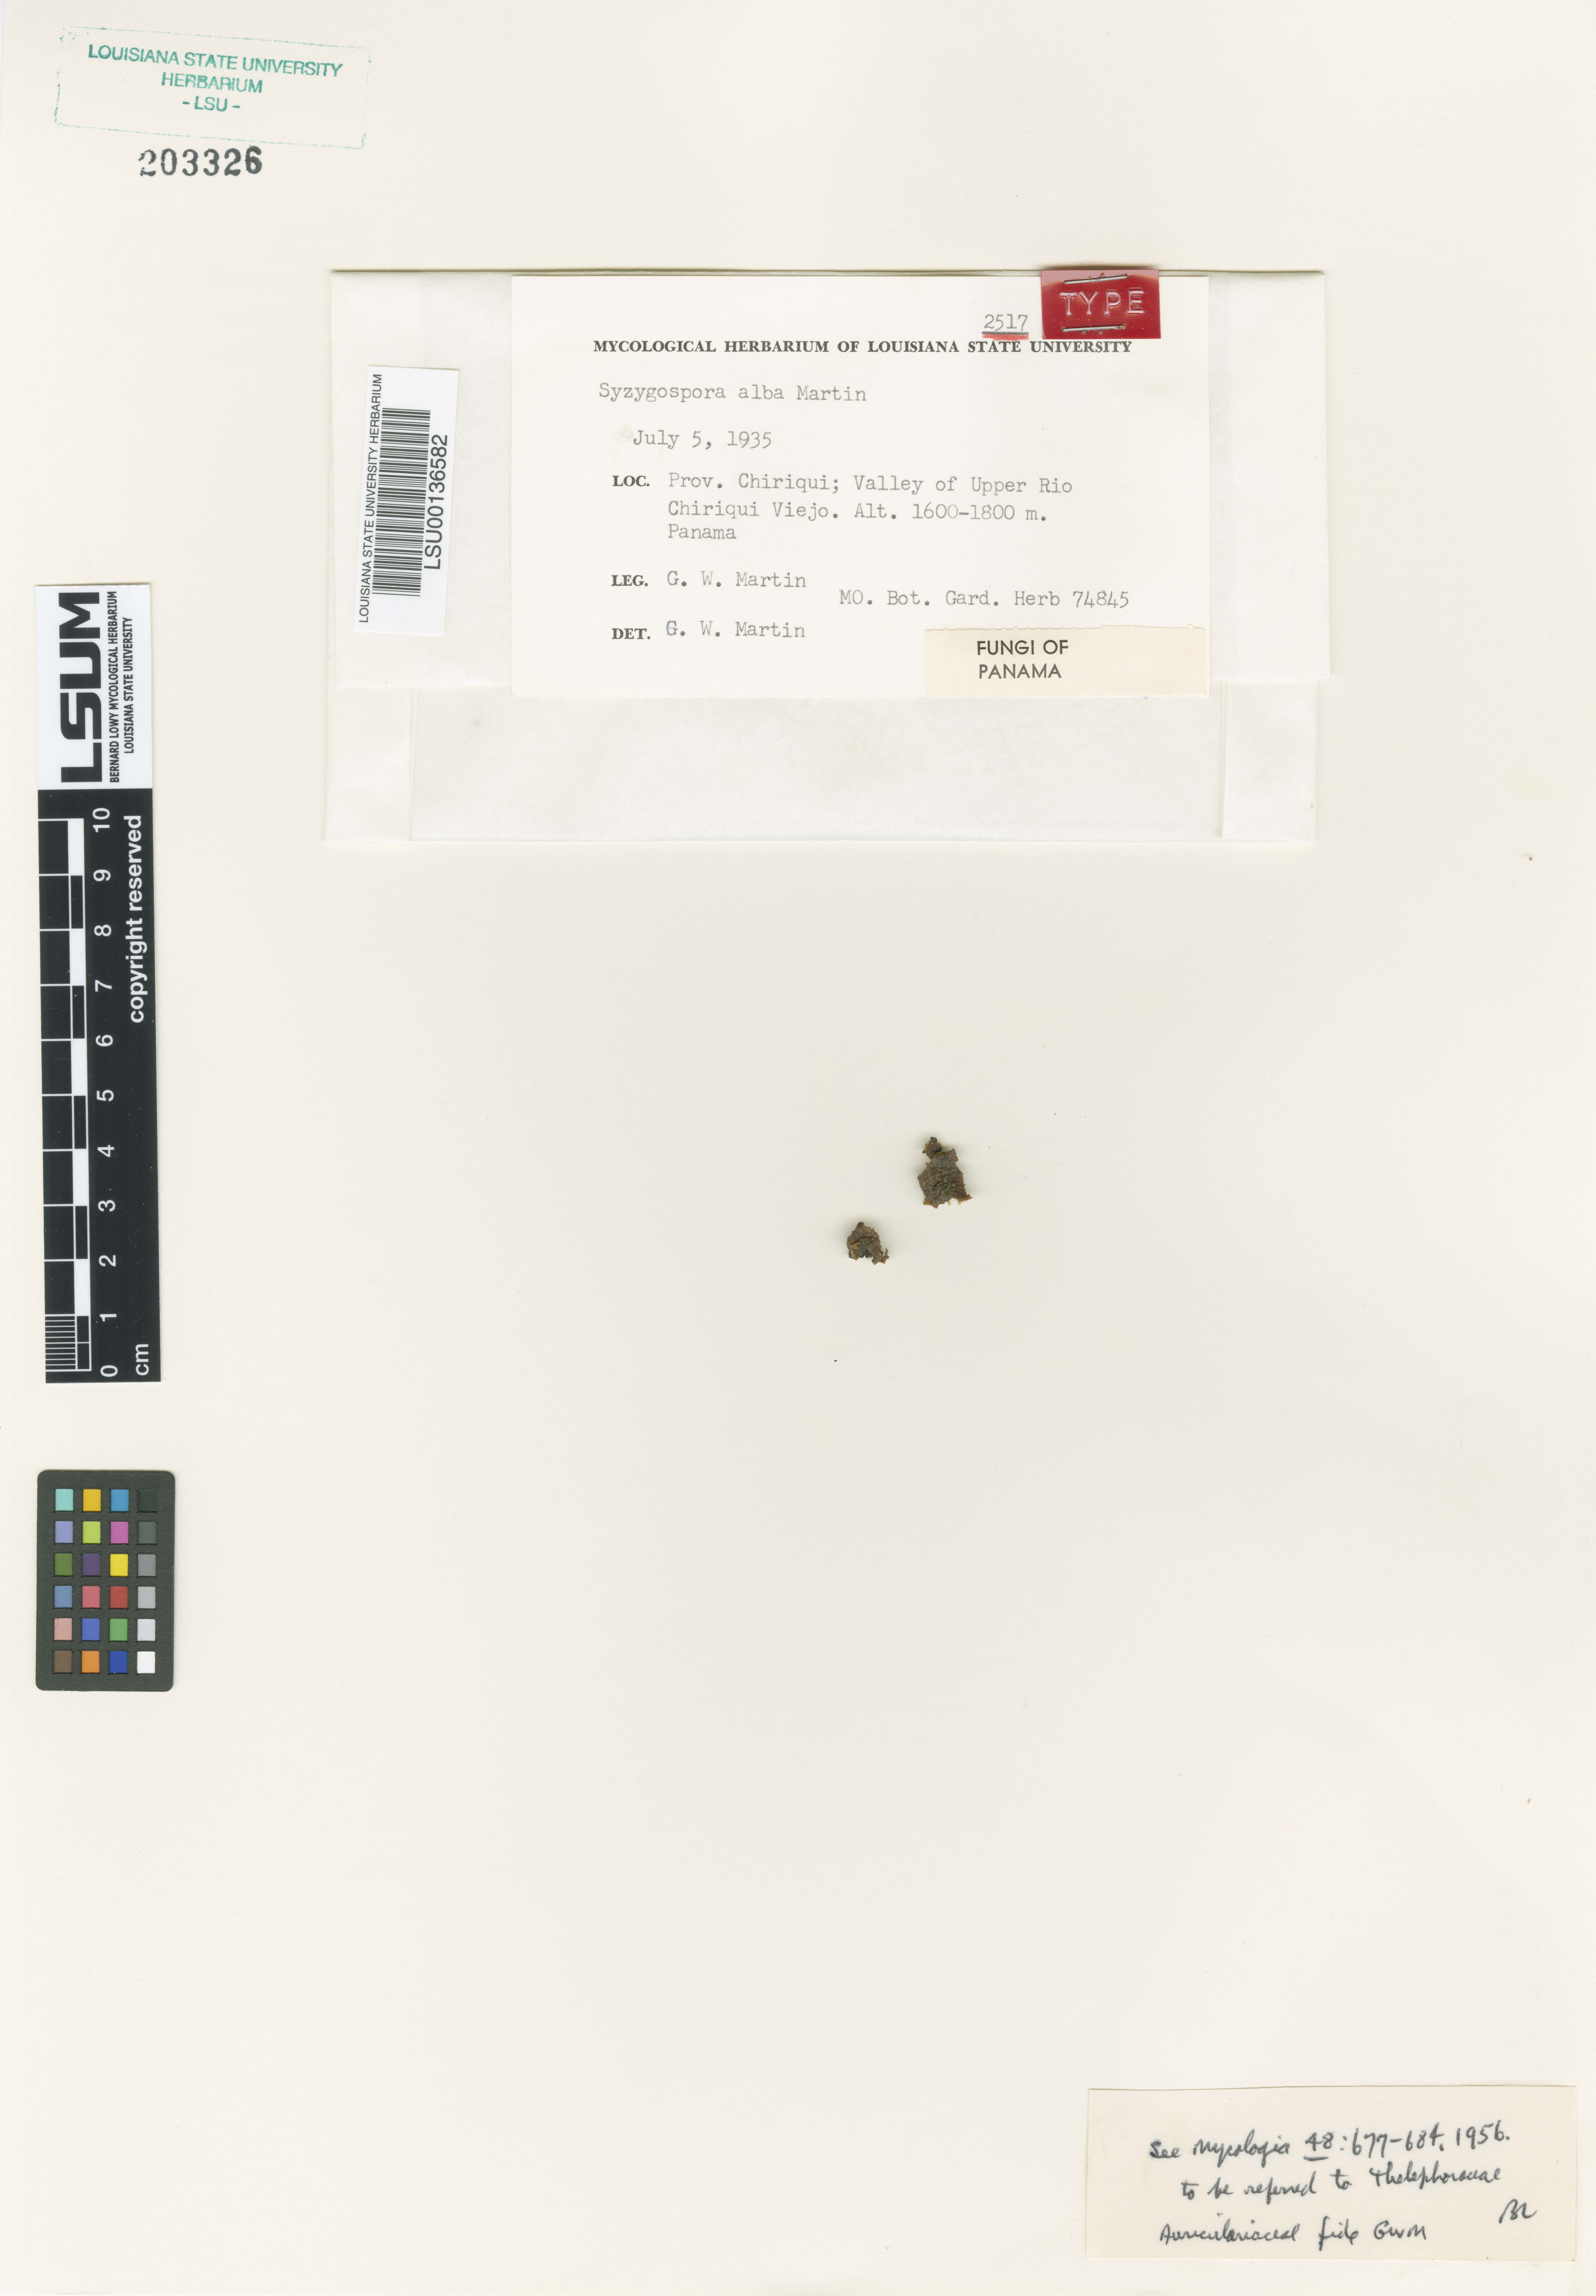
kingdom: Fungi
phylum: Basidiomycota
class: Tremellomycetes
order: Filobasidiales
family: Filobasidiaceae
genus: Syzygospora
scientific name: Syzygospora alba
